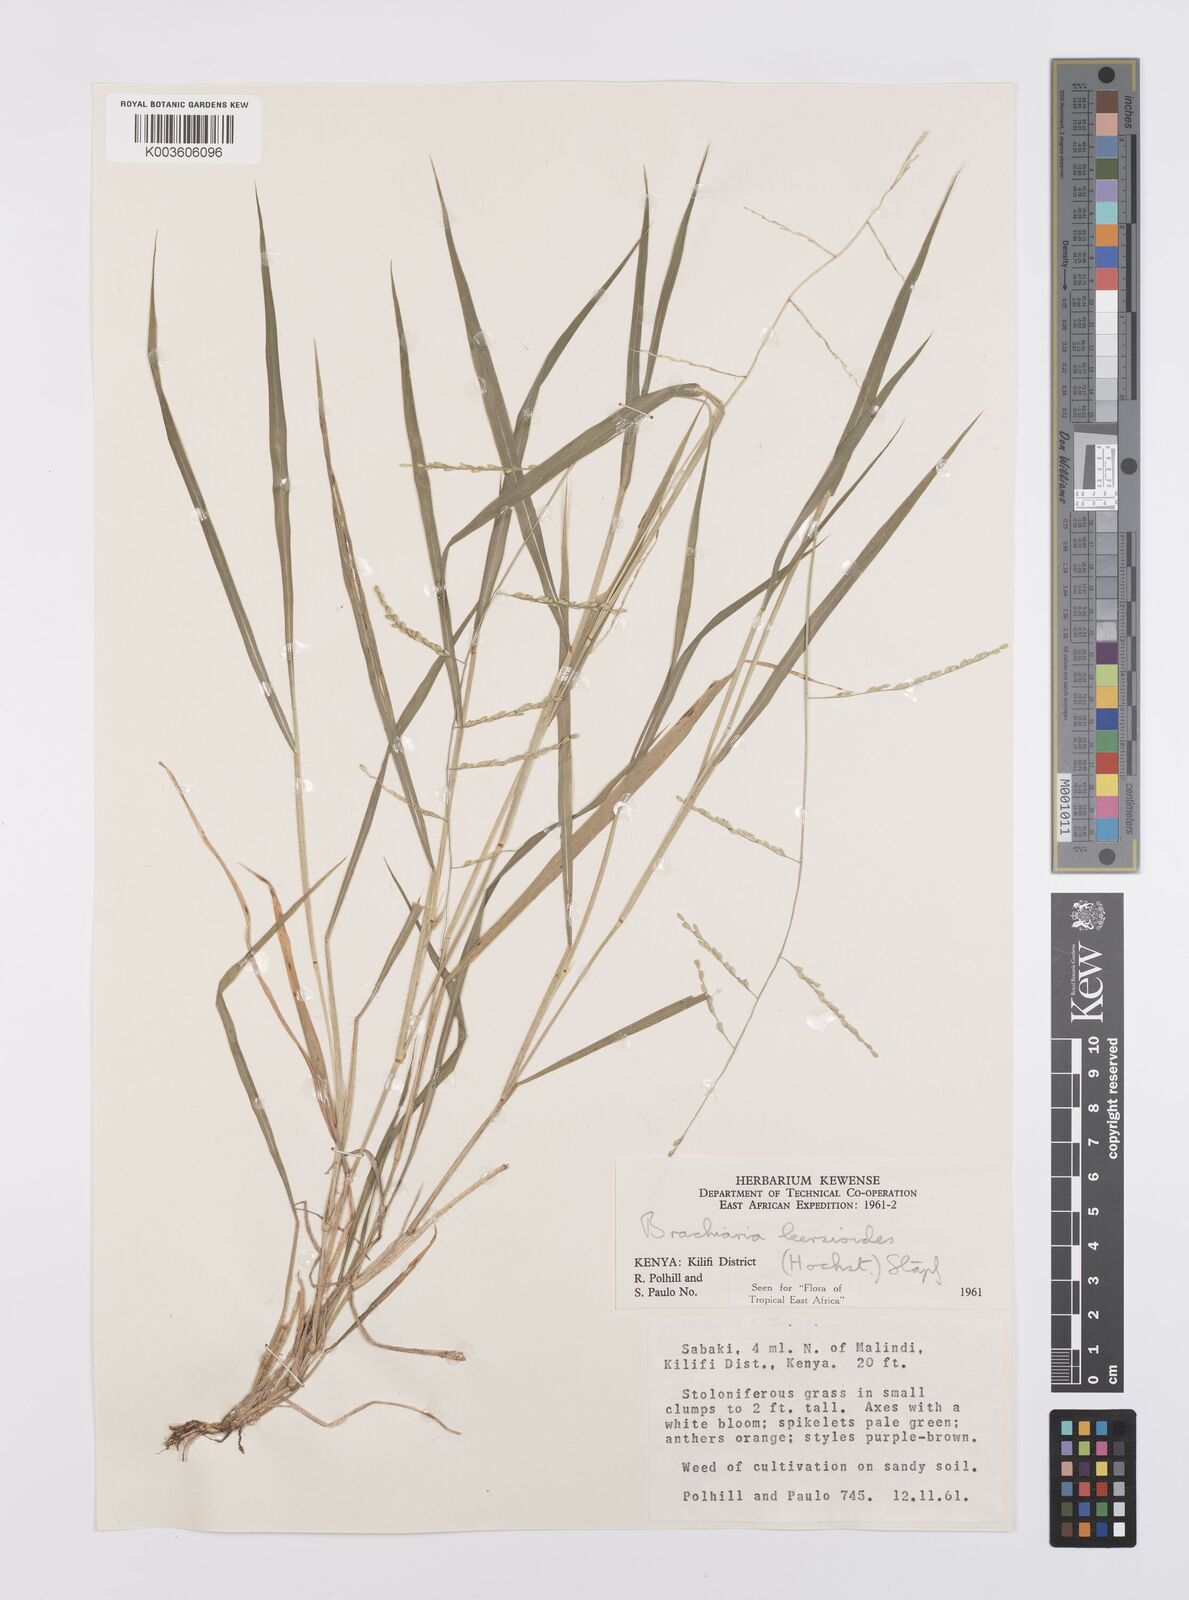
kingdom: Plantae
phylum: Tracheophyta
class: Liliopsida
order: Poales
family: Poaceae
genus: Urochloa
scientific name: Urochloa leersioides
